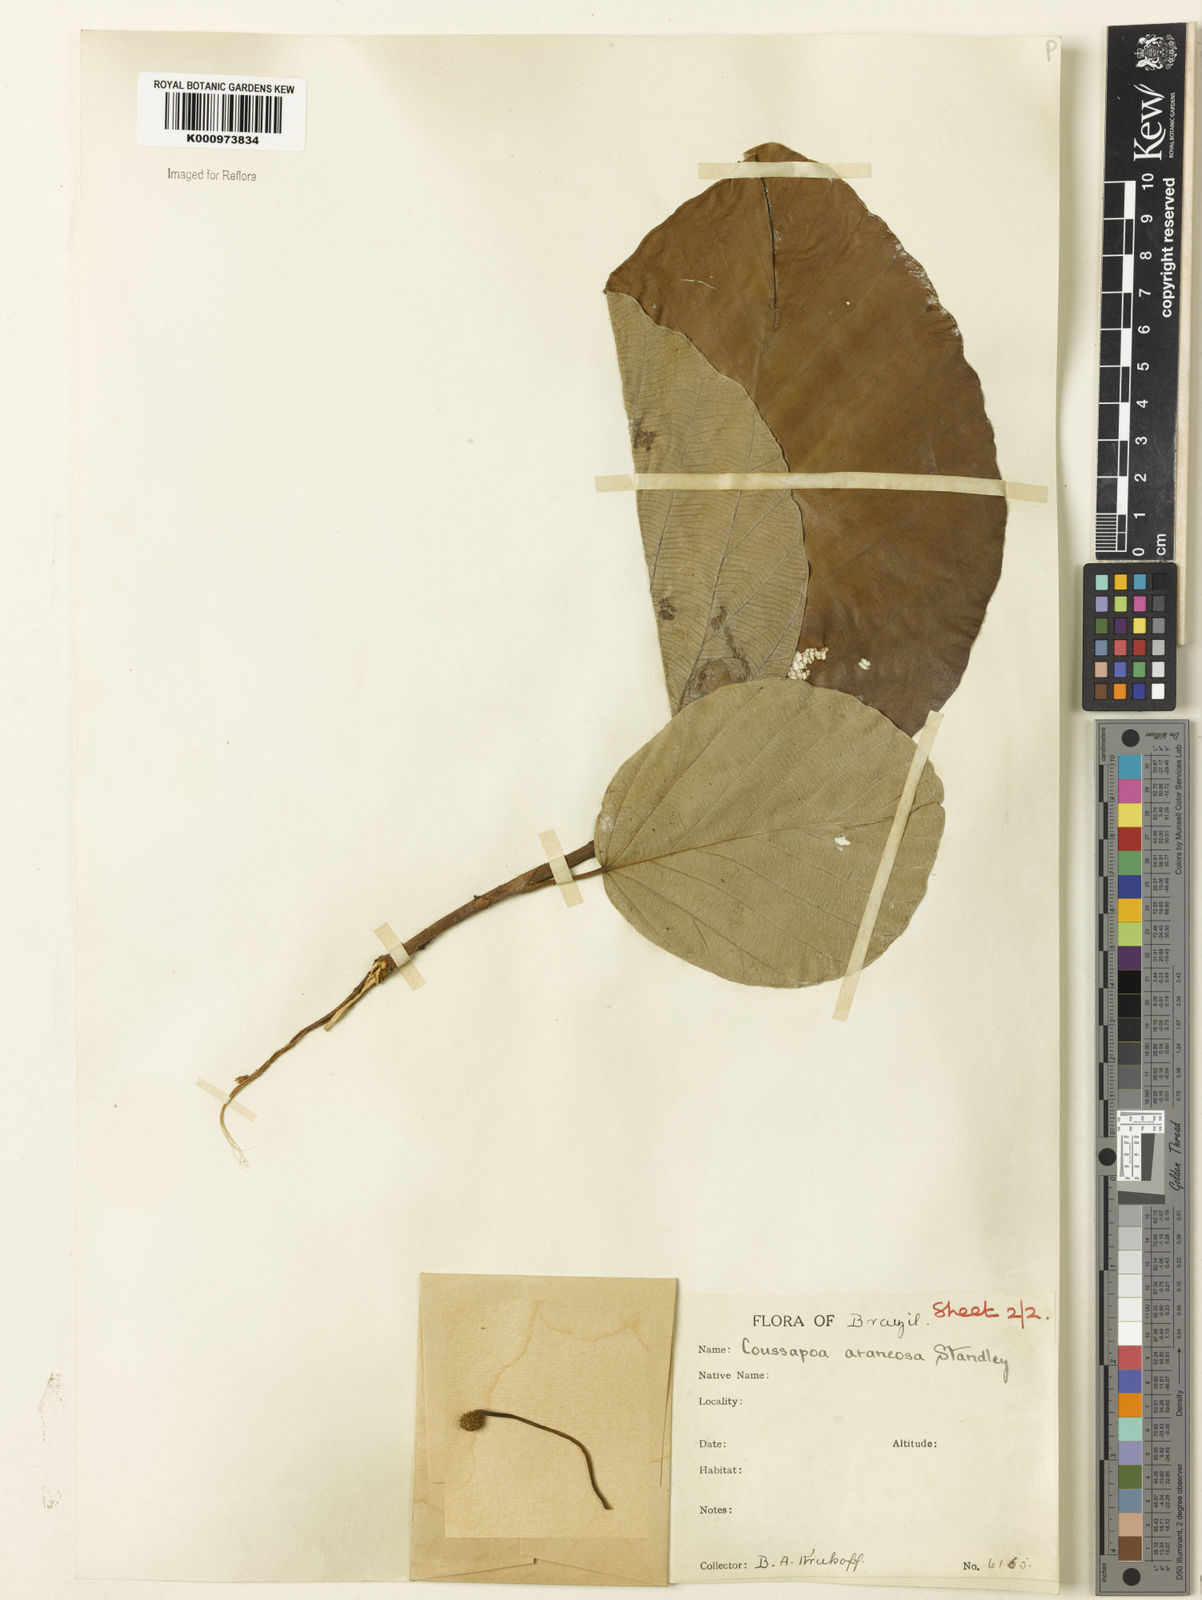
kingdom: Plantae
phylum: Tracheophyta
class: Magnoliopsida
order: Rosales
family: Urticaceae
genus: Coussapoa
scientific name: Coussapoa villosa
